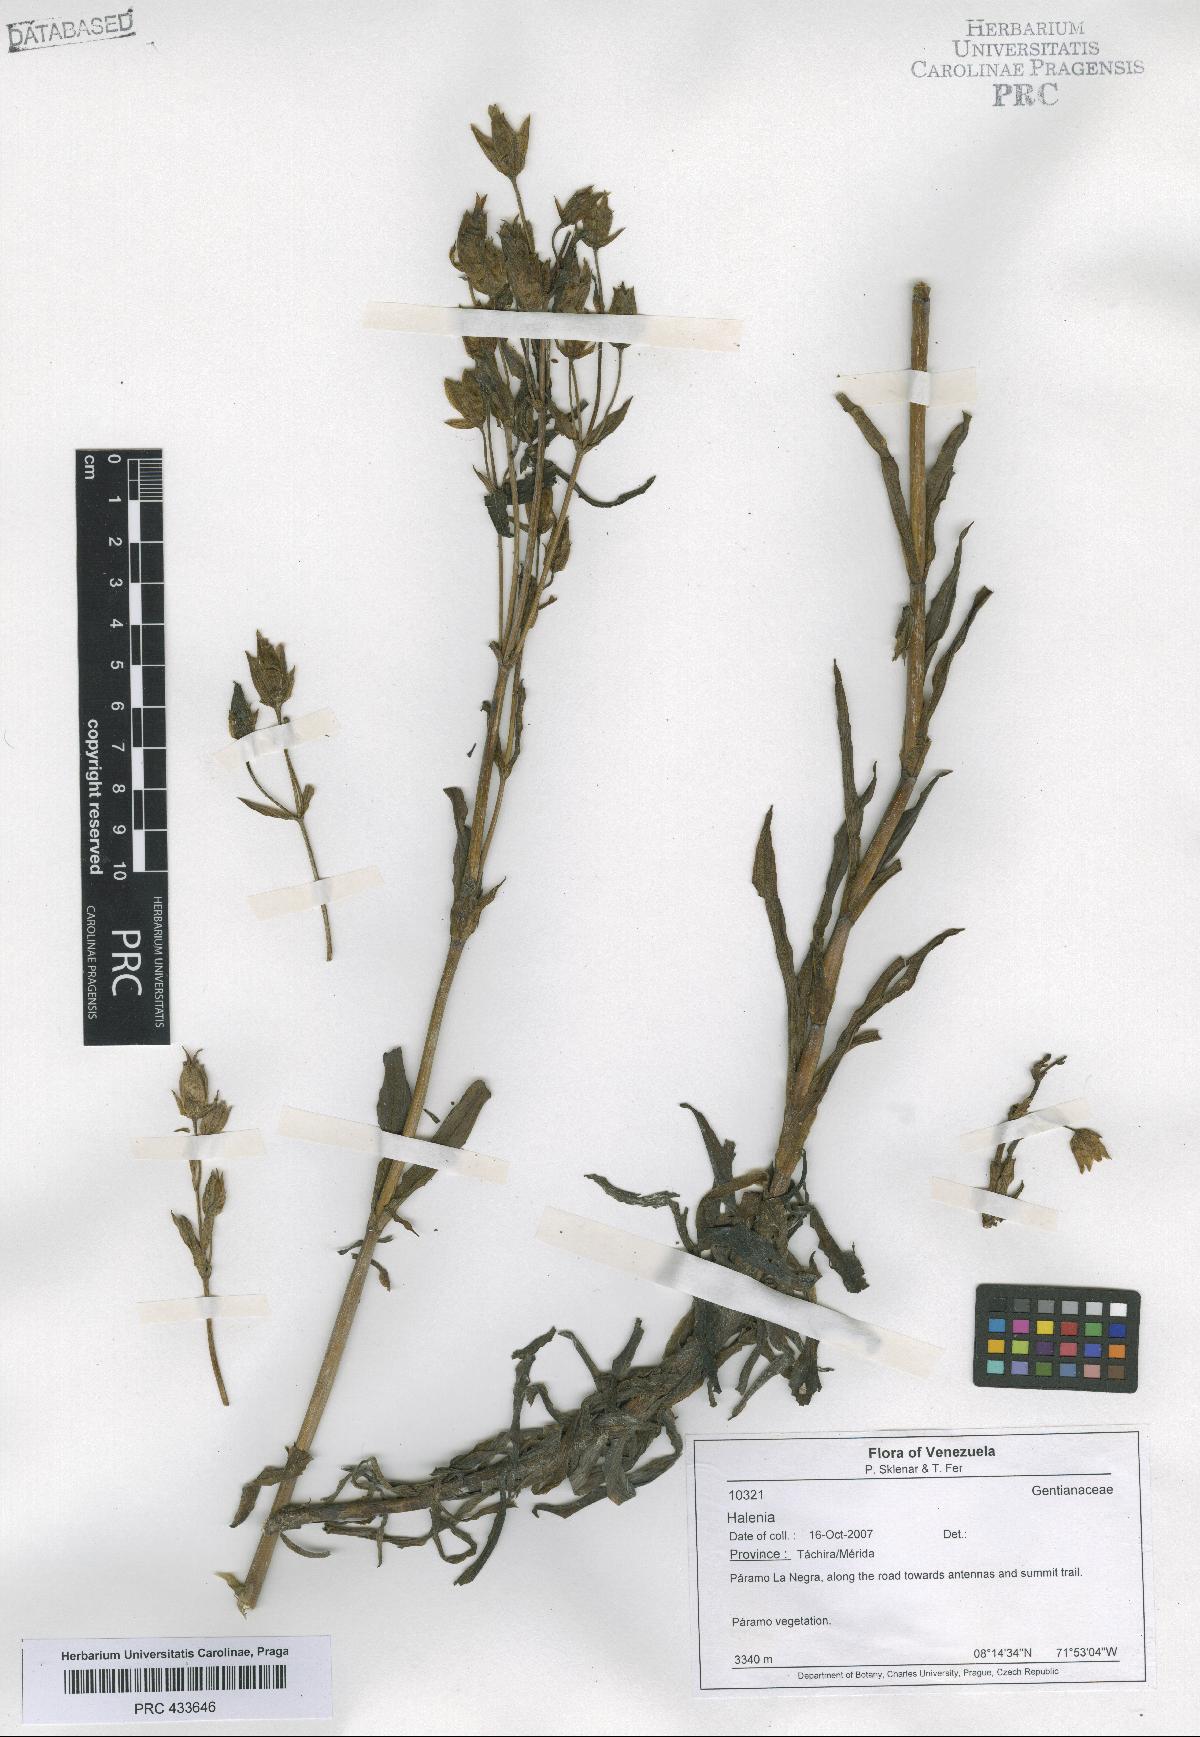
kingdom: Plantae
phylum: Tracheophyta
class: Magnoliopsida
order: Gentianales
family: Gentianaceae
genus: Halenia
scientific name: Halenia
